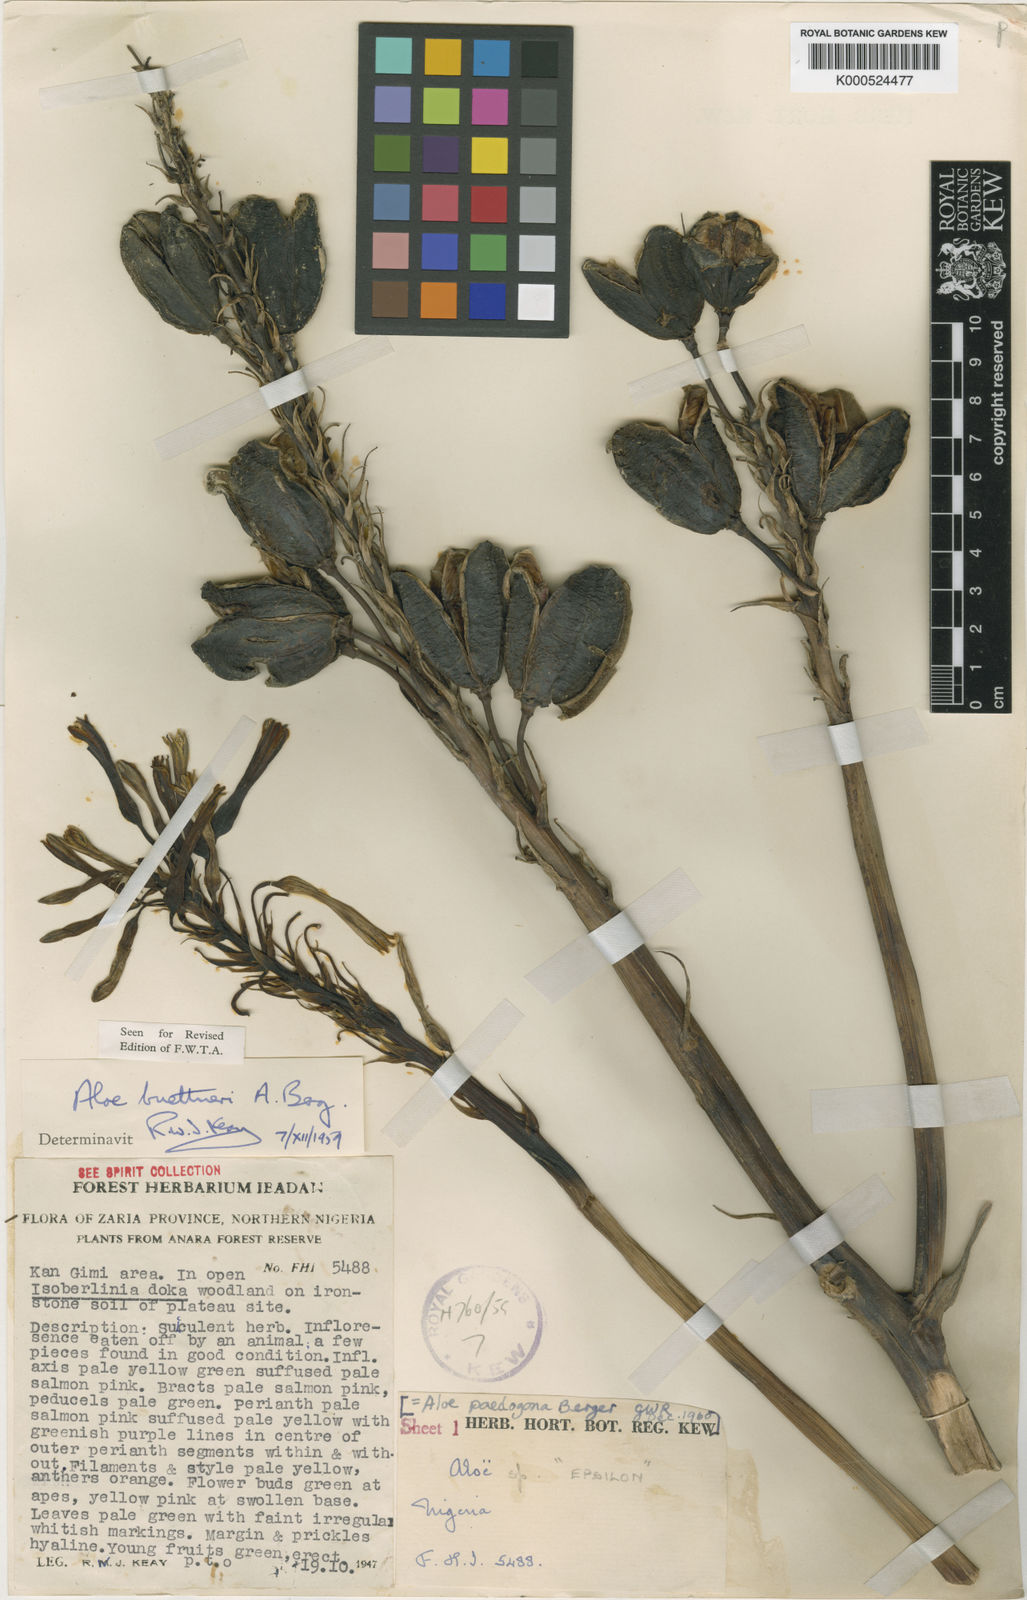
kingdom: Plantae
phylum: Tracheophyta
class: Liliopsida
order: Asparagales
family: Asphodelaceae
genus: Aloe
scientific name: Aloe buettneri
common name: West african aloe
